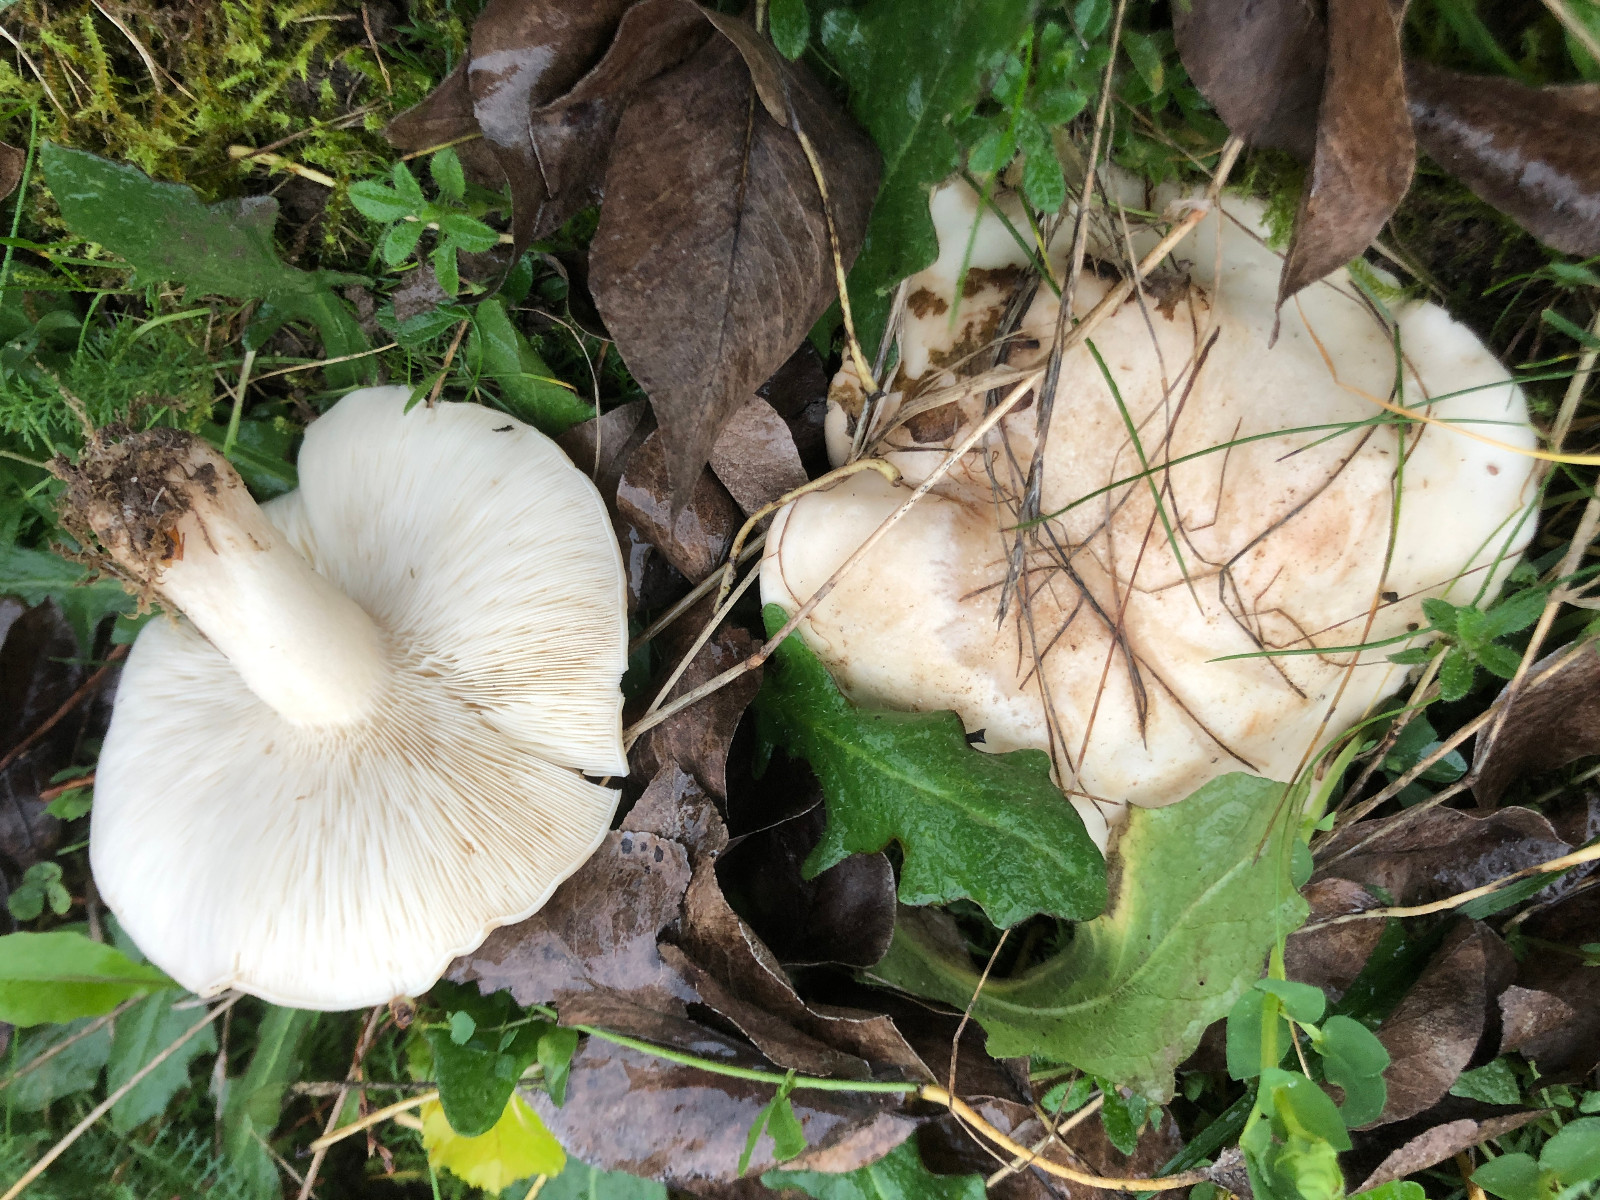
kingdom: Fungi
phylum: Basidiomycota
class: Agaricomycetes
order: Agaricales
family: Lyophyllaceae
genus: Calocybe
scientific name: Calocybe gambosa
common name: vårmusseron
